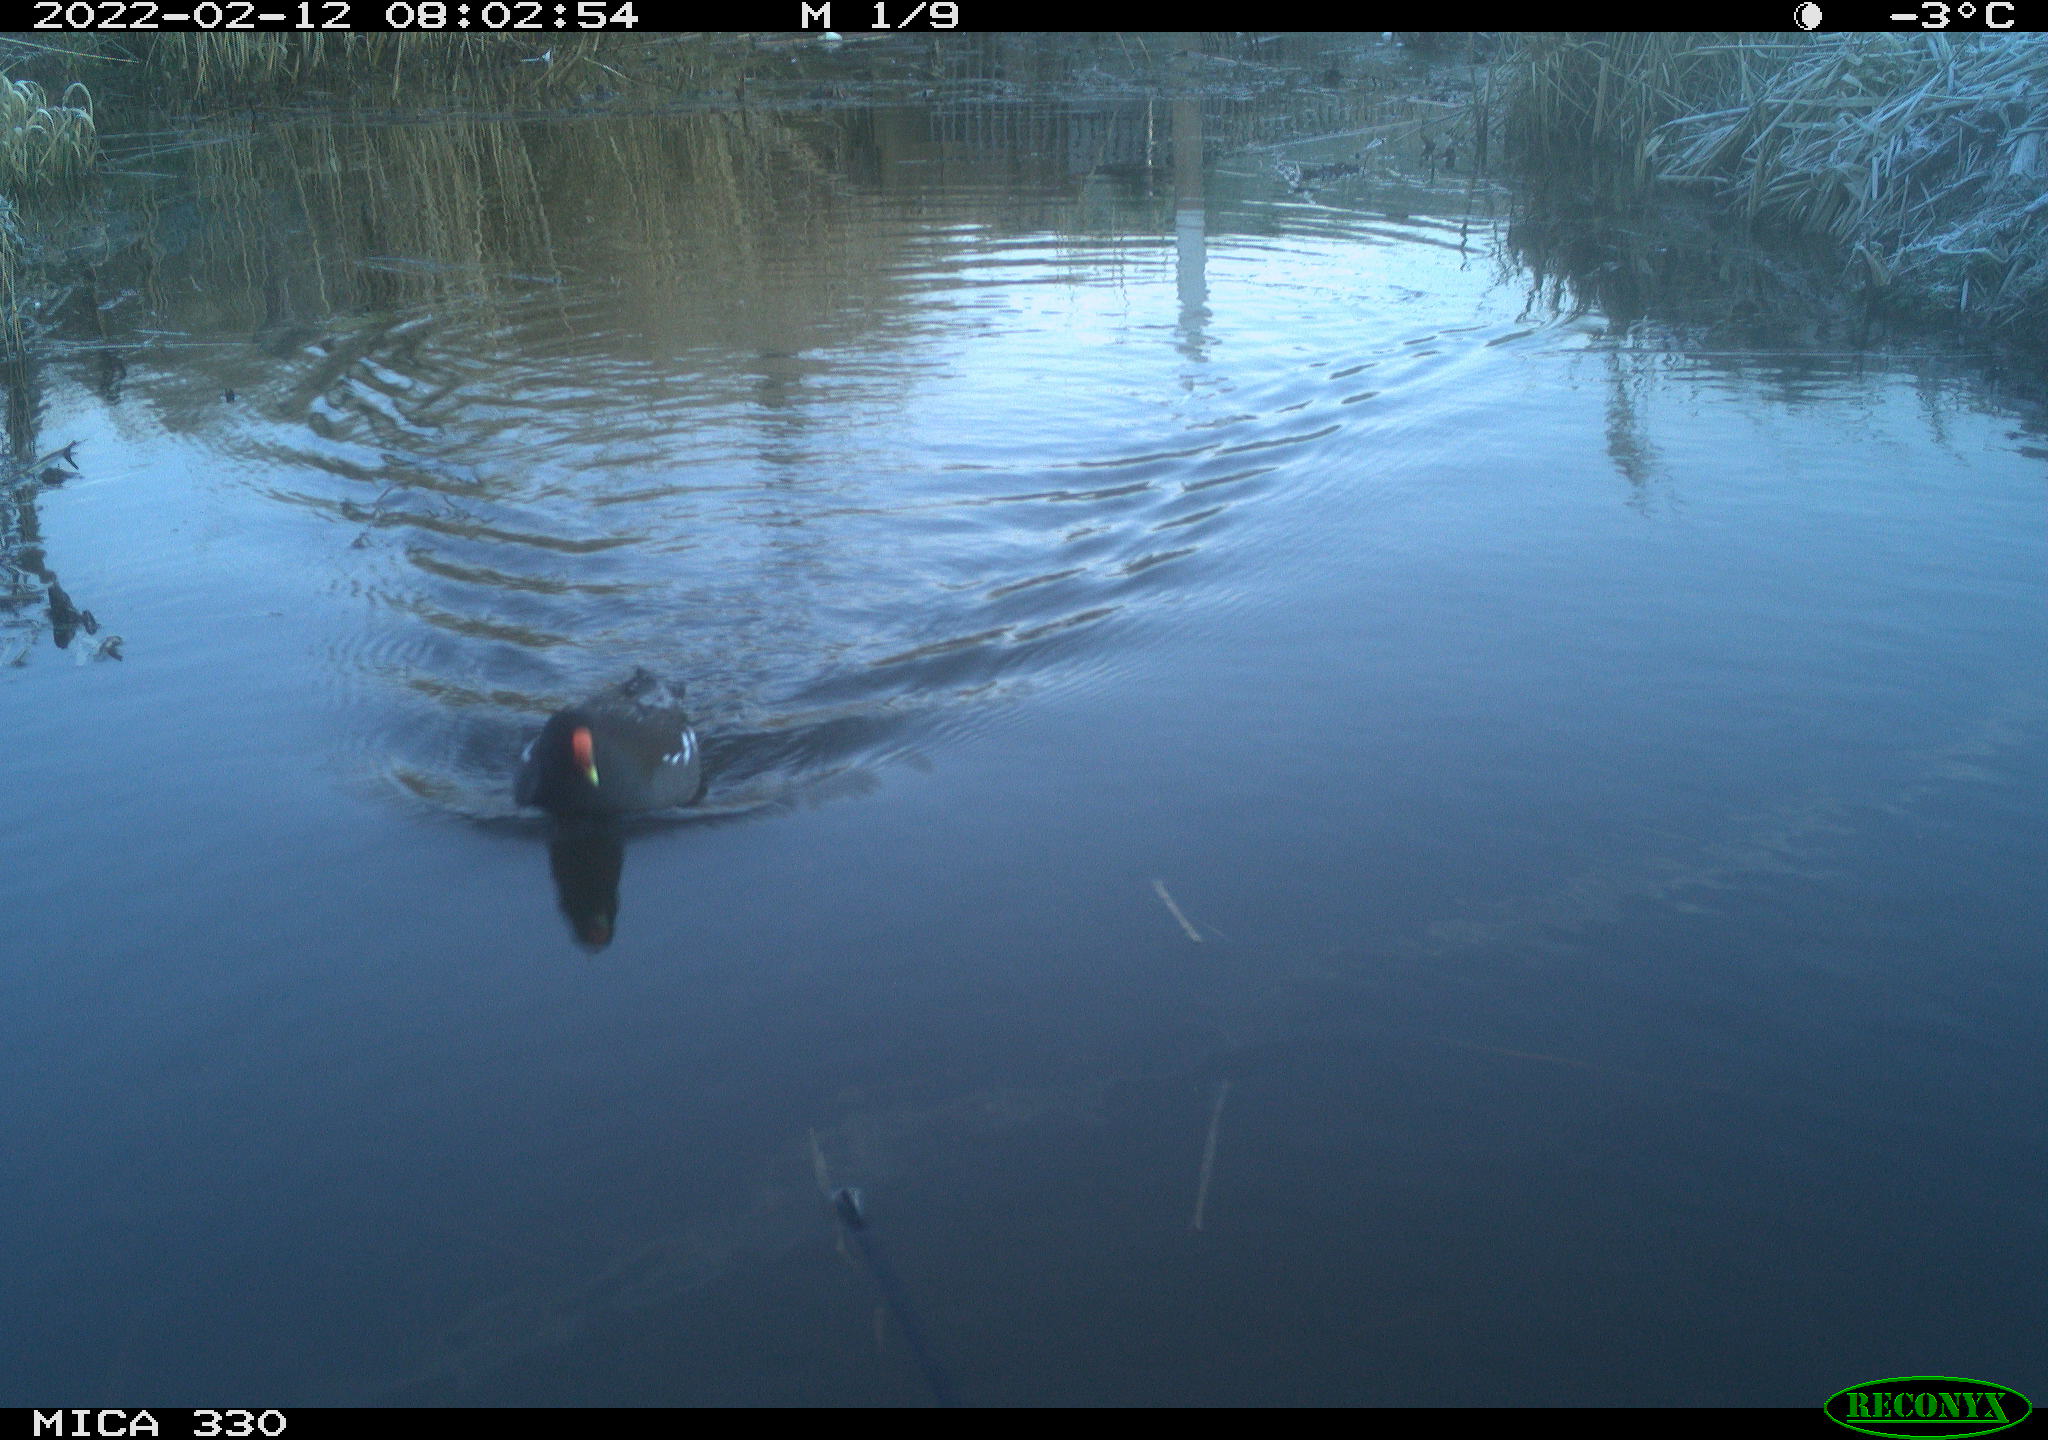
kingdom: Animalia
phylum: Chordata
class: Aves
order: Gruiformes
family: Rallidae
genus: Gallinula
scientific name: Gallinula chloropus
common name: Common moorhen
